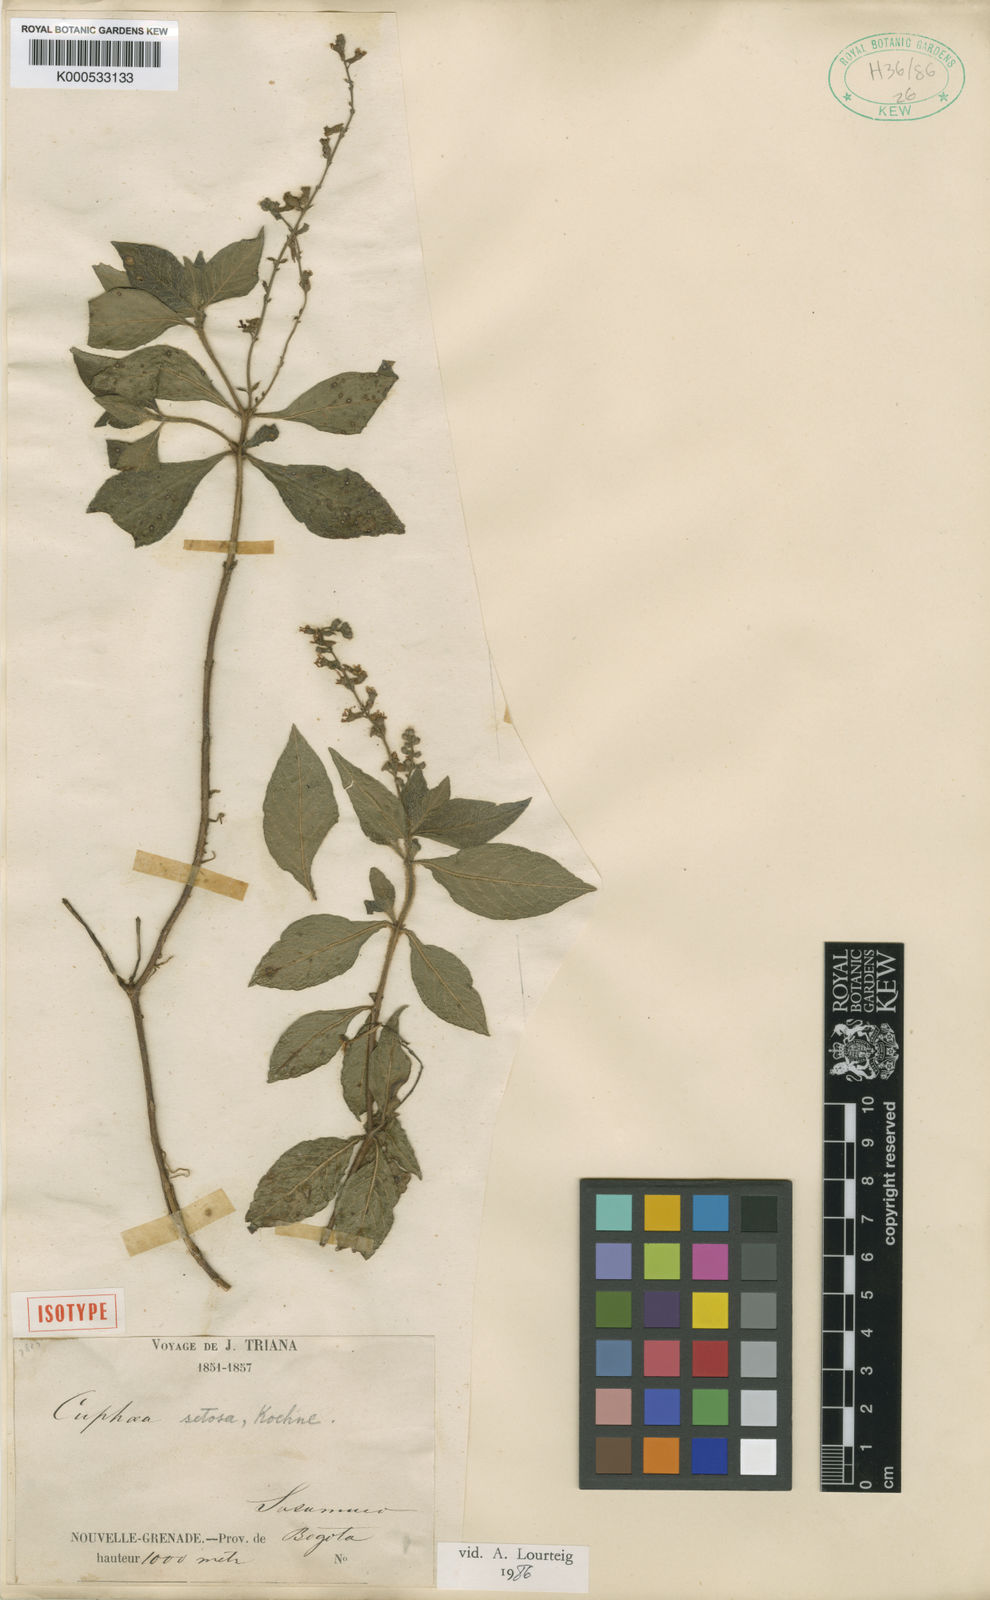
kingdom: Plantae
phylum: Tracheophyta
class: Magnoliopsida
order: Myrtales
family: Lythraceae
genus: Cuphea
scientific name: Cuphea setosa
